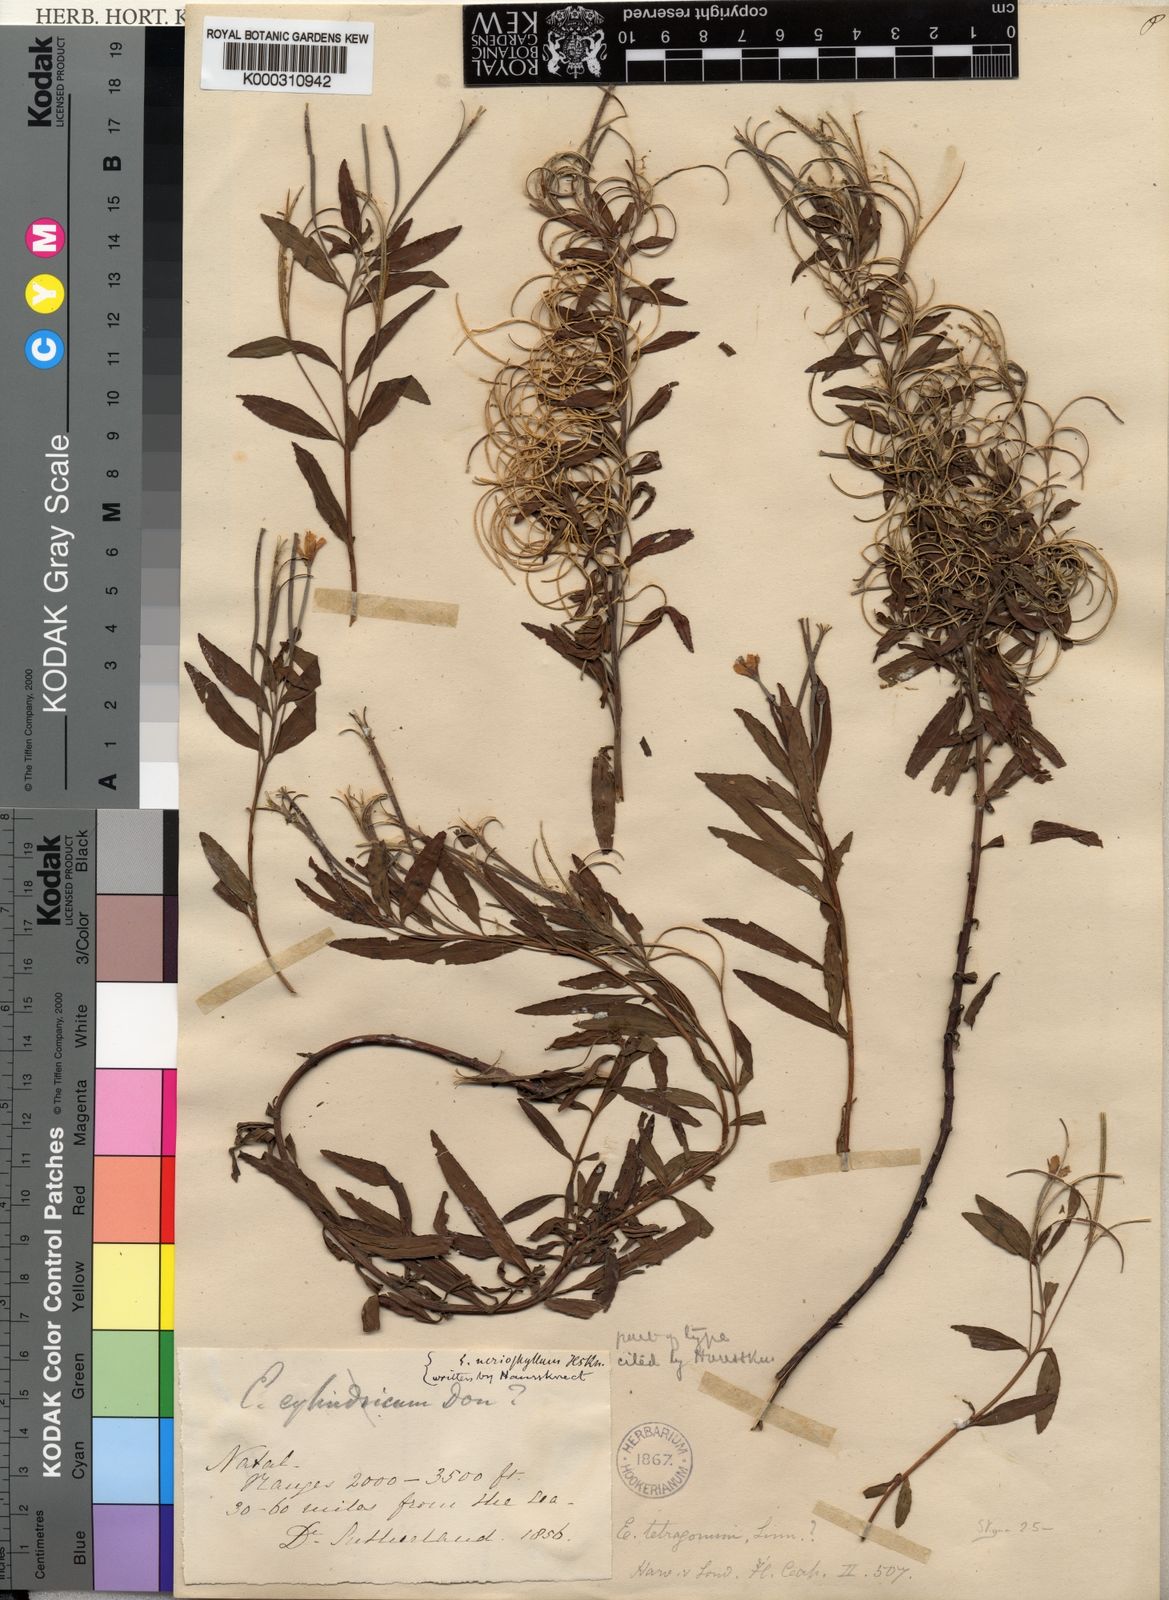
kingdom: Plantae
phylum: Tracheophyta
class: Magnoliopsida
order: Myrtales
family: Onagraceae
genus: Epilobium
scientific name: Epilobium cylindricum
